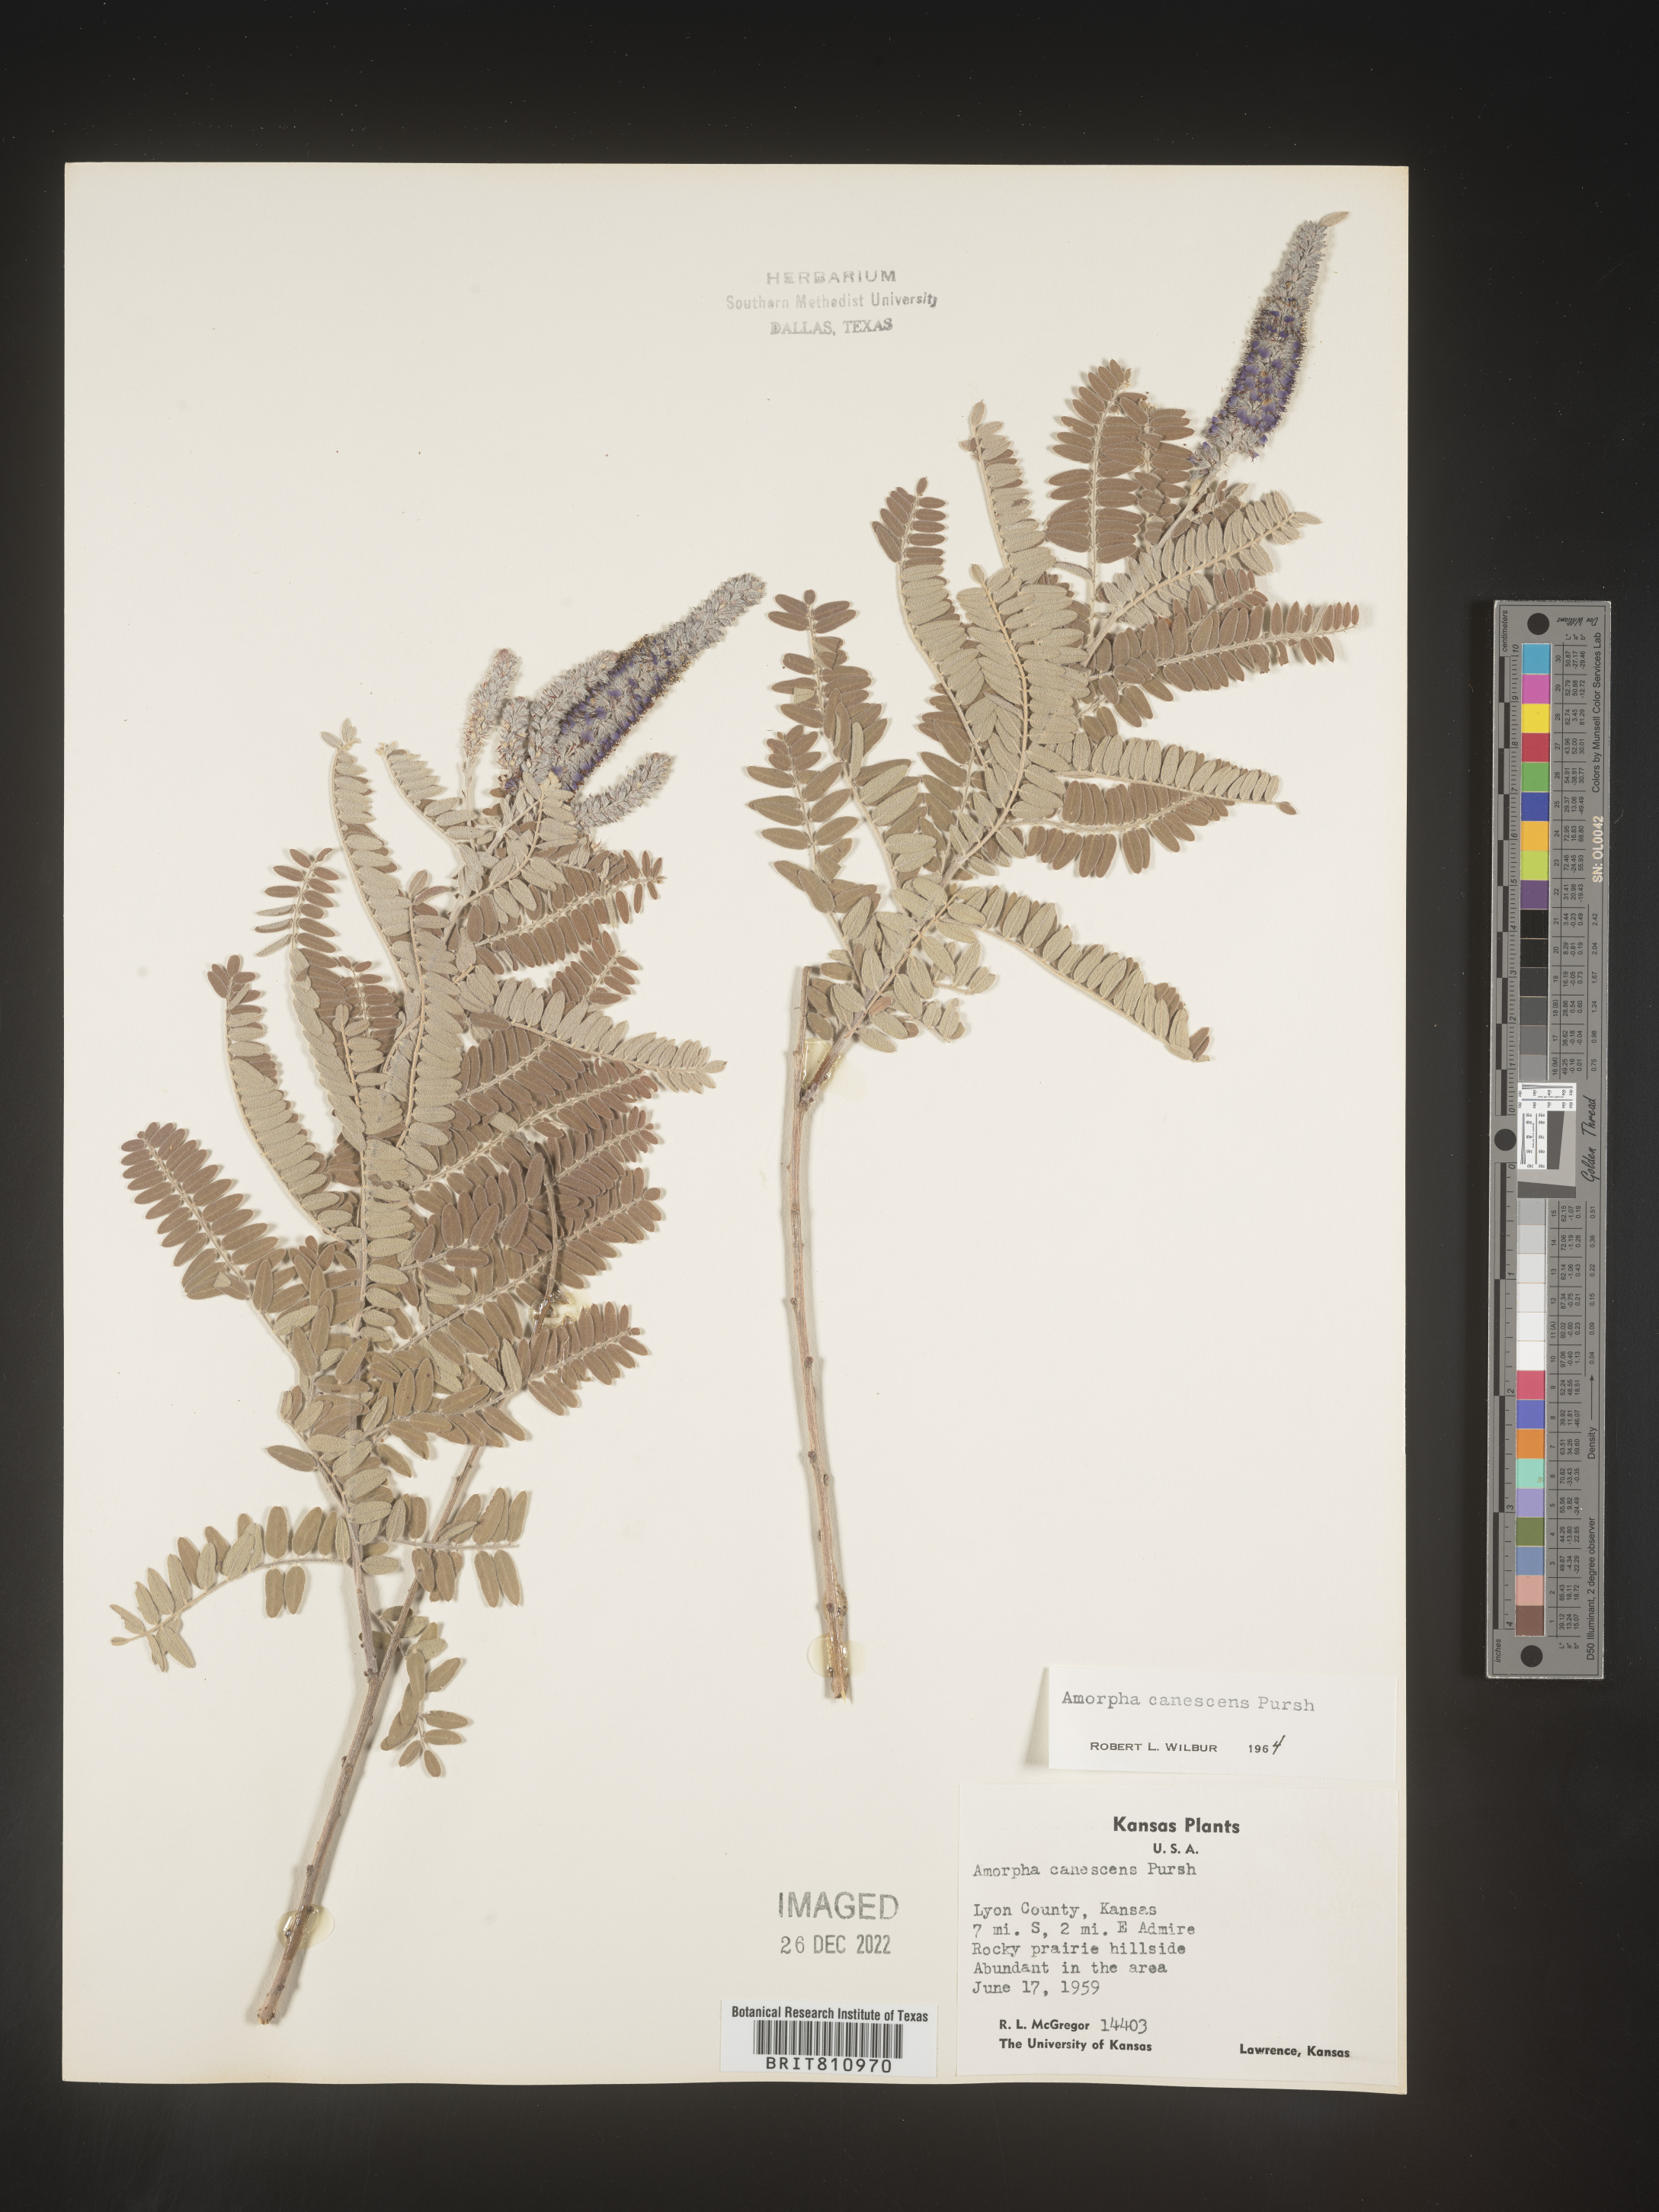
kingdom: Plantae
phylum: Tracheophyta
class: Magnoliopsida
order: Fabales
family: Fabaceae
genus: Amorpha
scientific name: Amorpha canescens
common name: Leadplant
